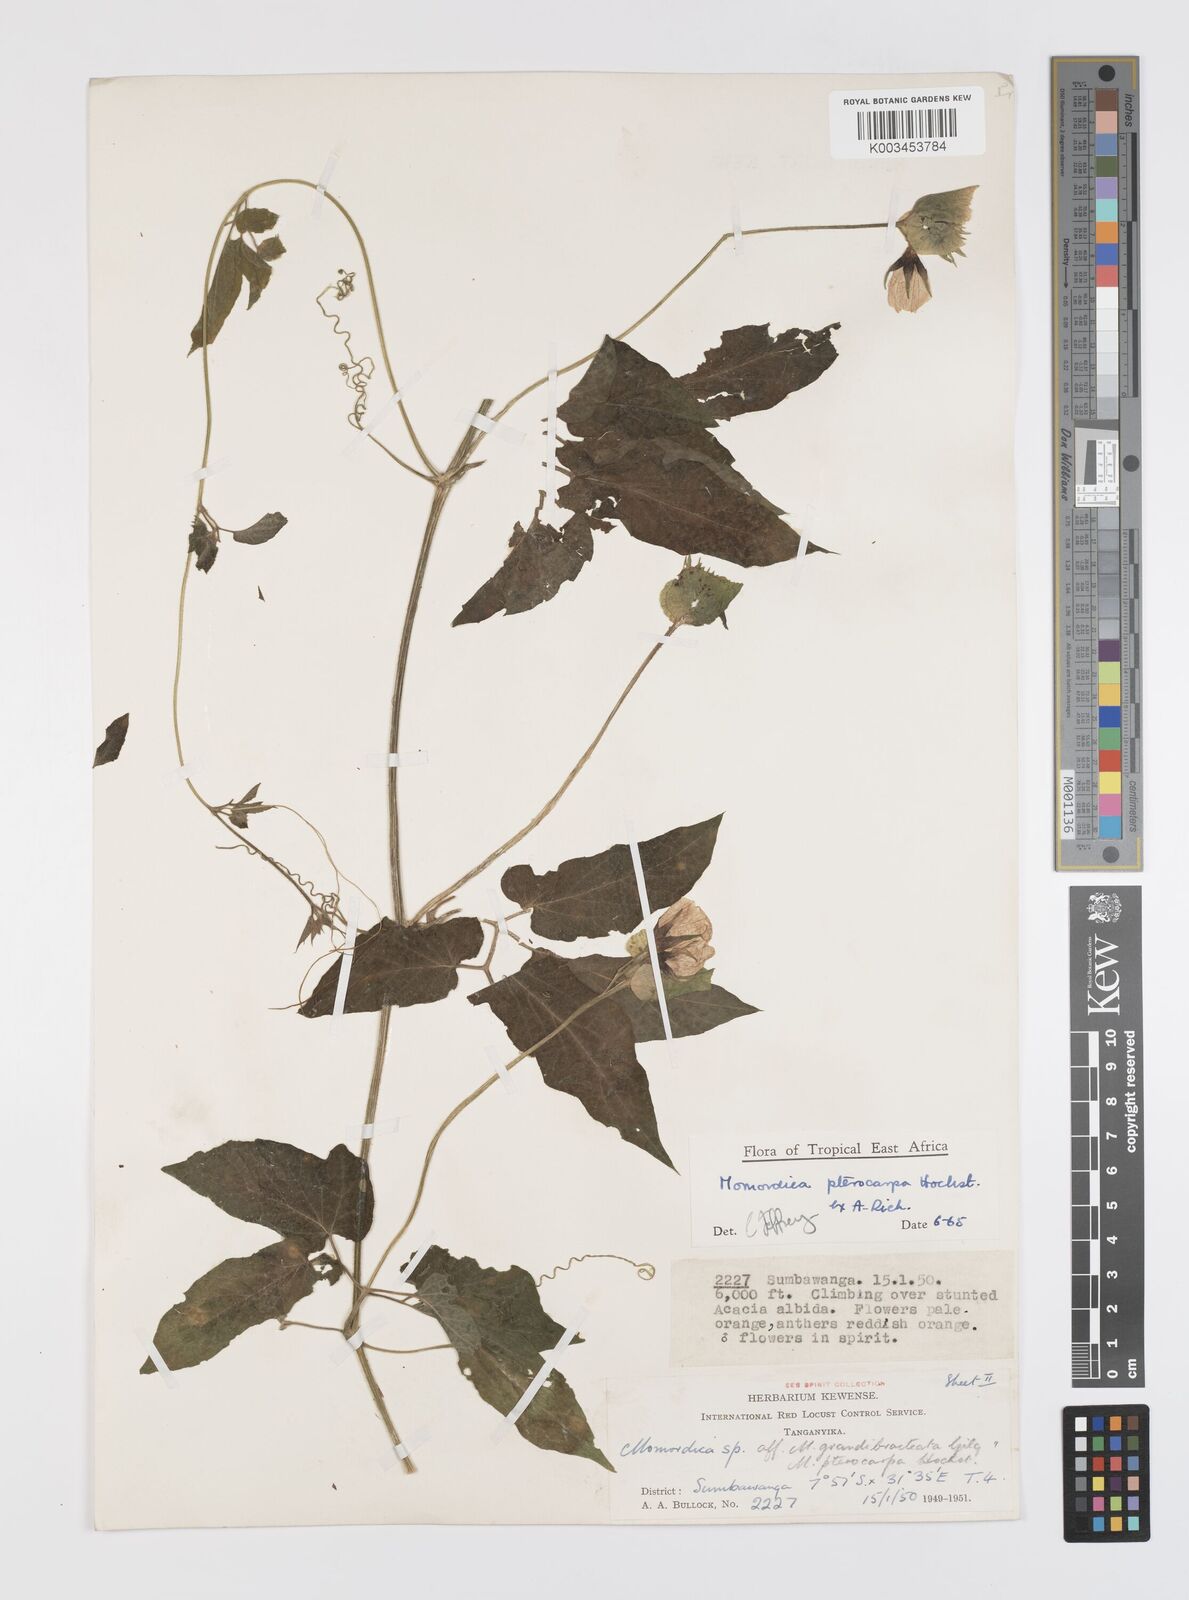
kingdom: Plantae
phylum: Tracheophyta
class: Magnoliopsida
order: Cucurbitales
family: Cucurbitaceae
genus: Momordica
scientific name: Momordica pterocarpa
